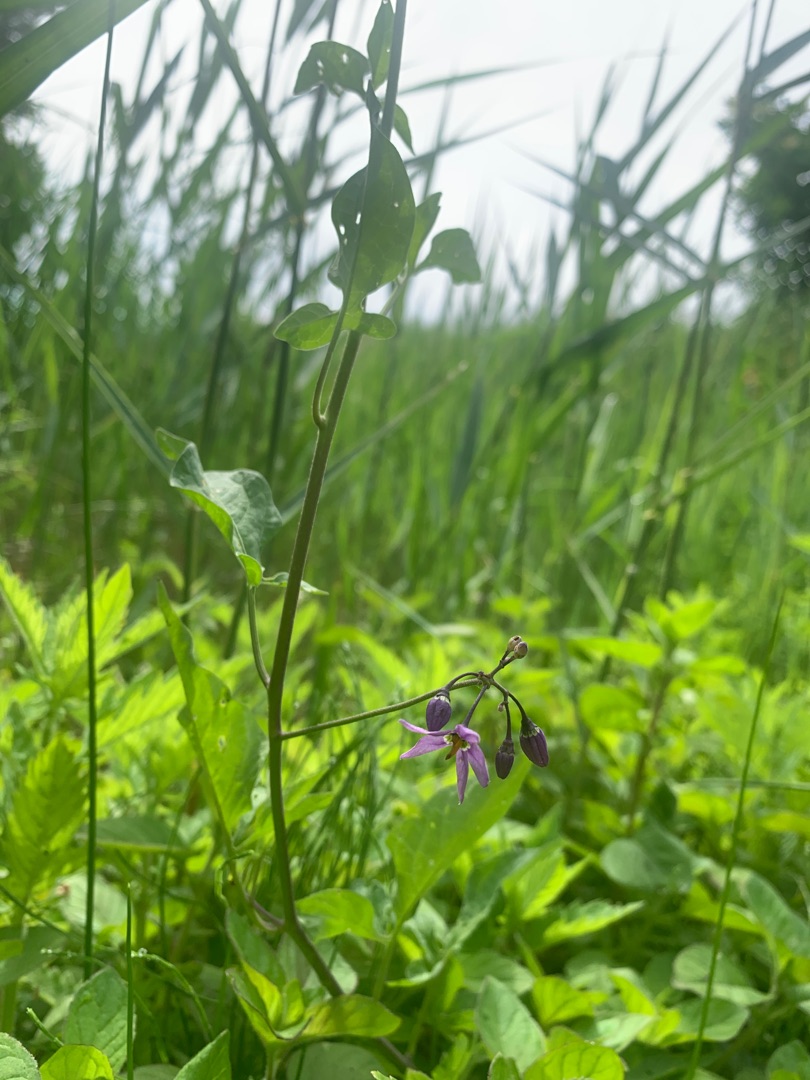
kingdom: Plantae
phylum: Tracheophyta
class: Magnoliopsida
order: Solanales
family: Solanaceae
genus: Solanum
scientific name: Solanum dulcamara
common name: Bittersød natskygge
